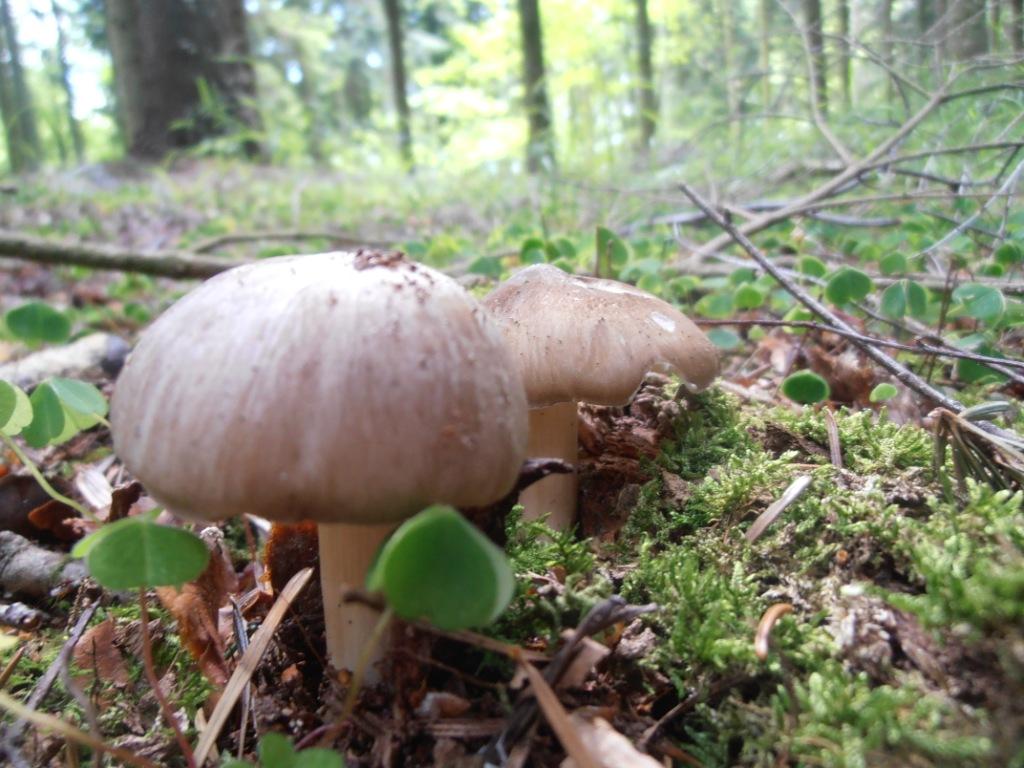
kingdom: Fungi
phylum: Basidiomycota
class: Agaricomycetes
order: Agaricales
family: Tricholomataceae
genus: Megacollybia
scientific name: Megacollybia platyphylla
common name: bredbladet væbnerhat
